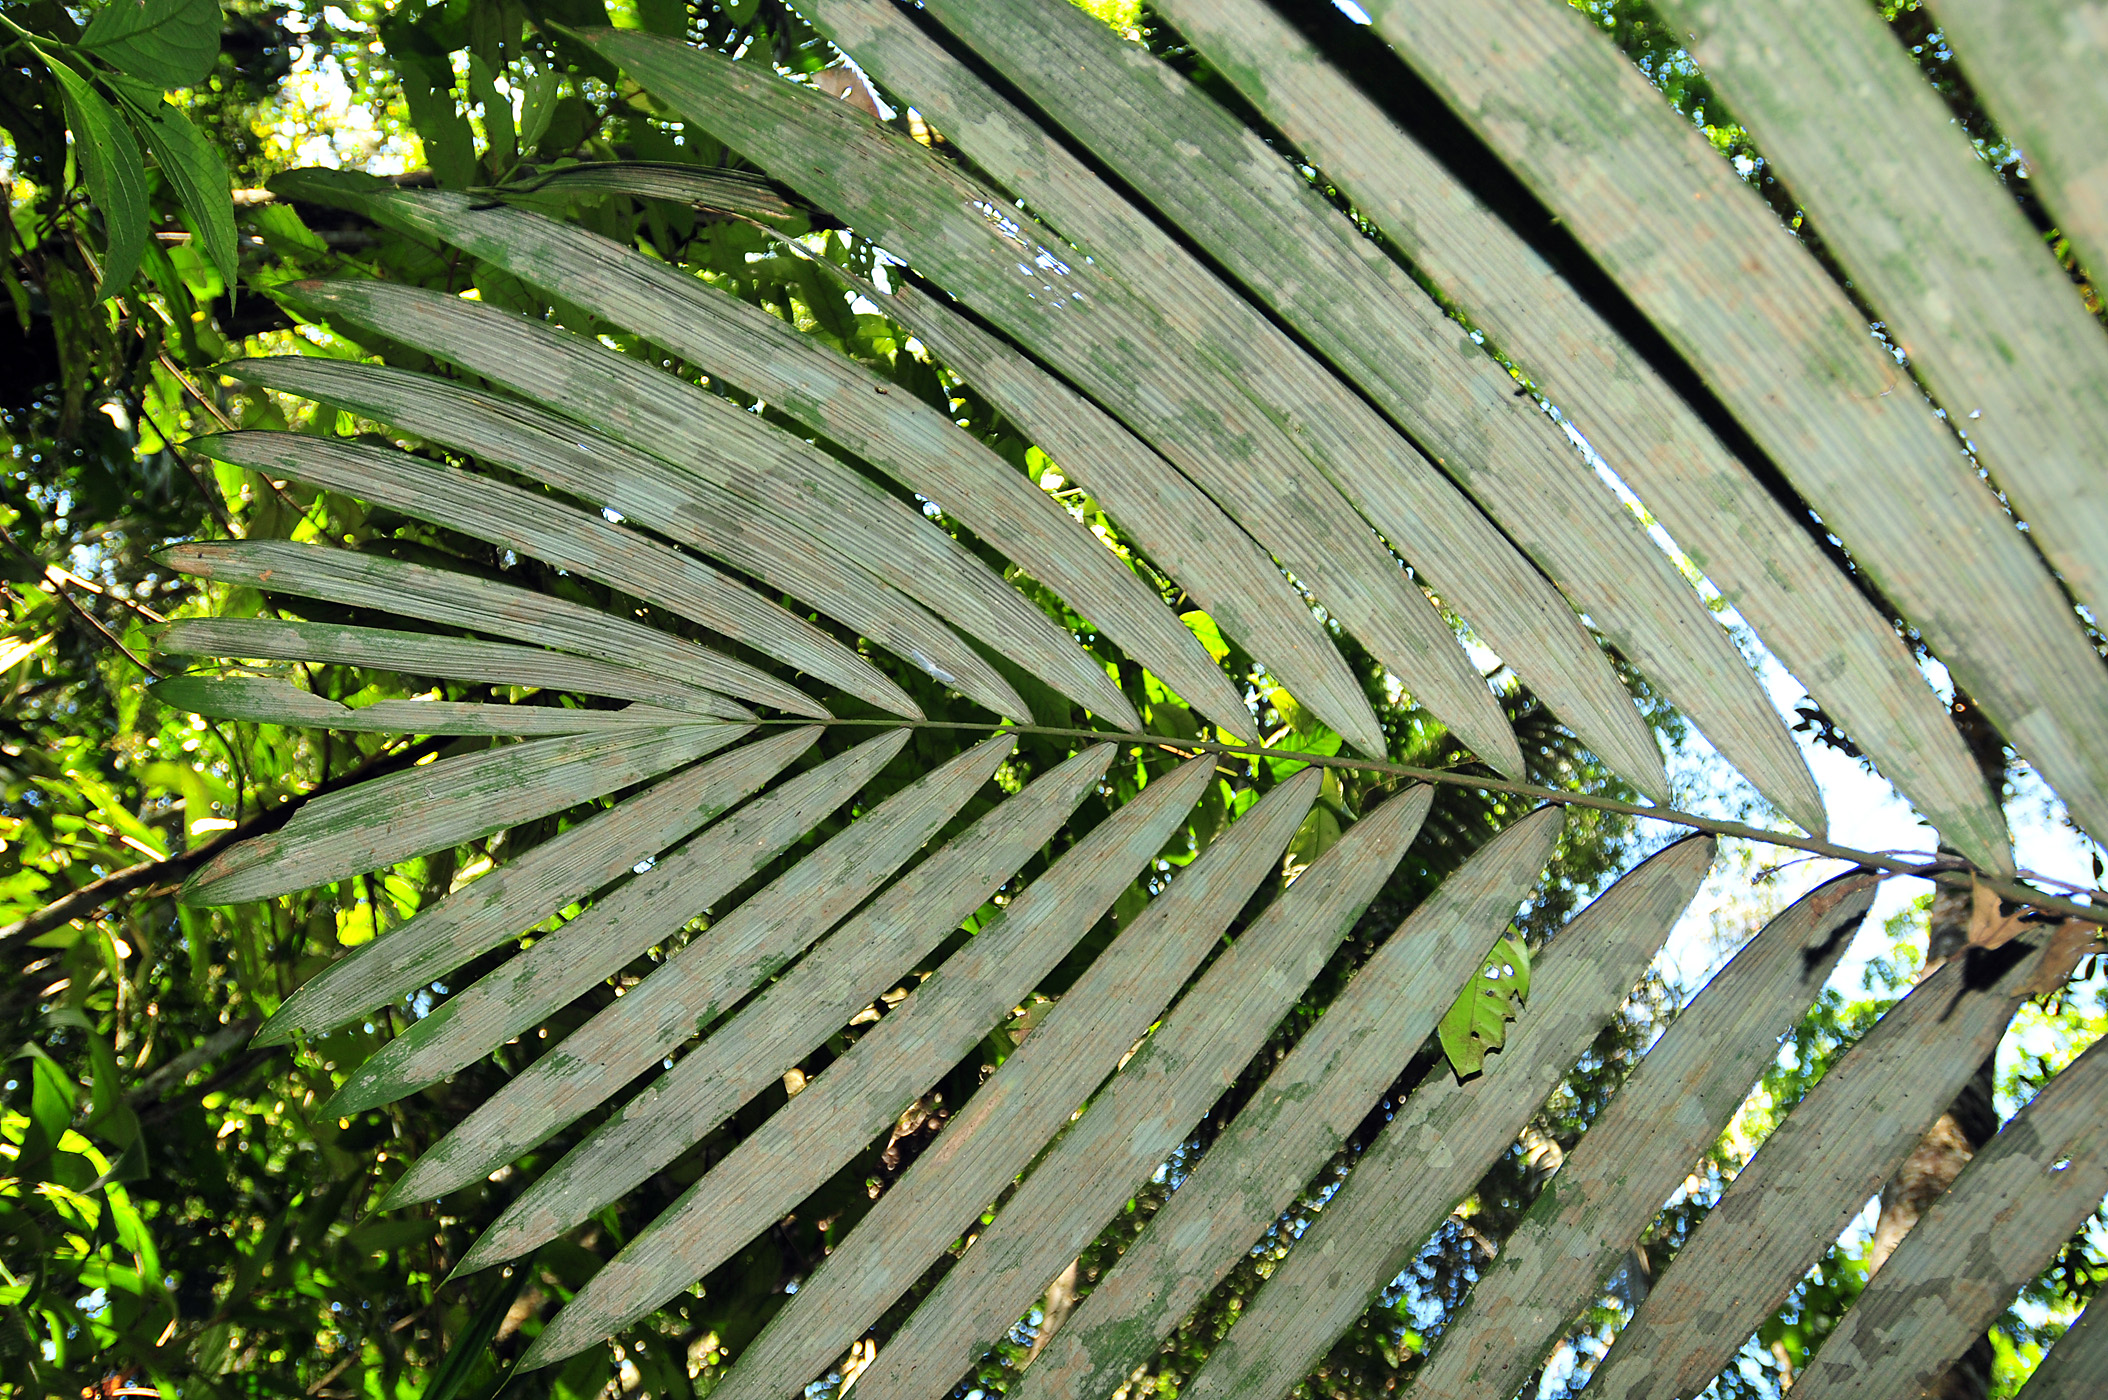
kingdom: Plantae
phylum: Tracheophyta
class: Liliopsida
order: Arecales
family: Arecaceae
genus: Oenocarpus
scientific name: Oenocarpus bataua
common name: Bataua palm
